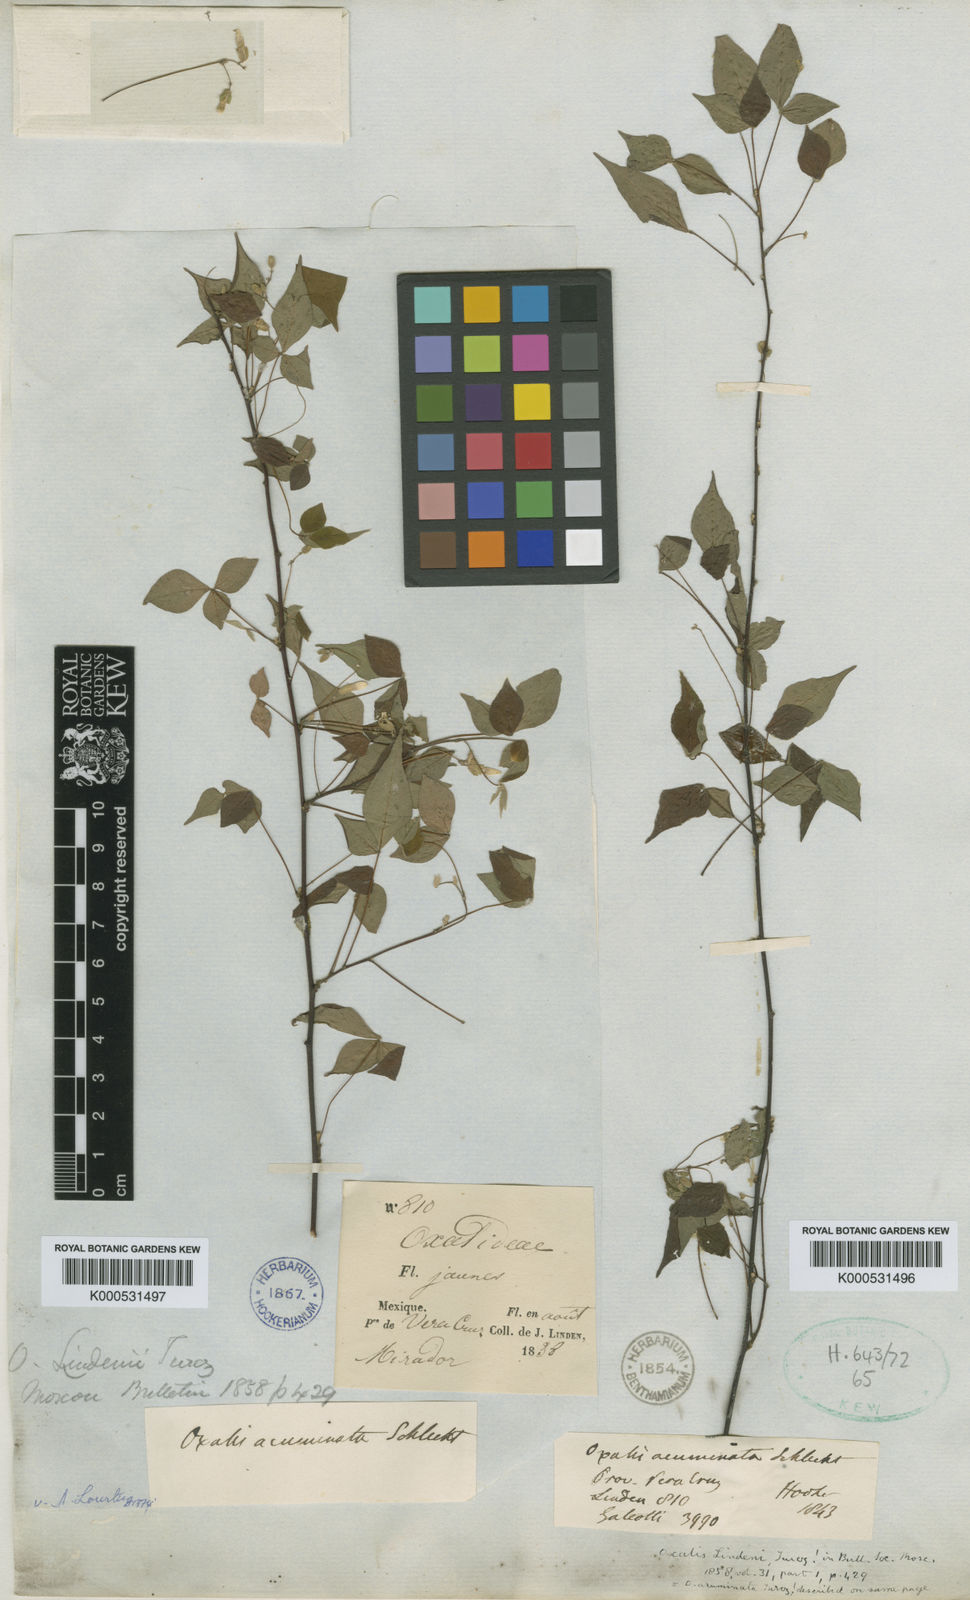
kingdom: Plantae
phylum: Tracheophyta
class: Magnoliopsida
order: Oxalidales
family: Oxalidaceae
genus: Oxalis
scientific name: Oxalis rhombifolia
